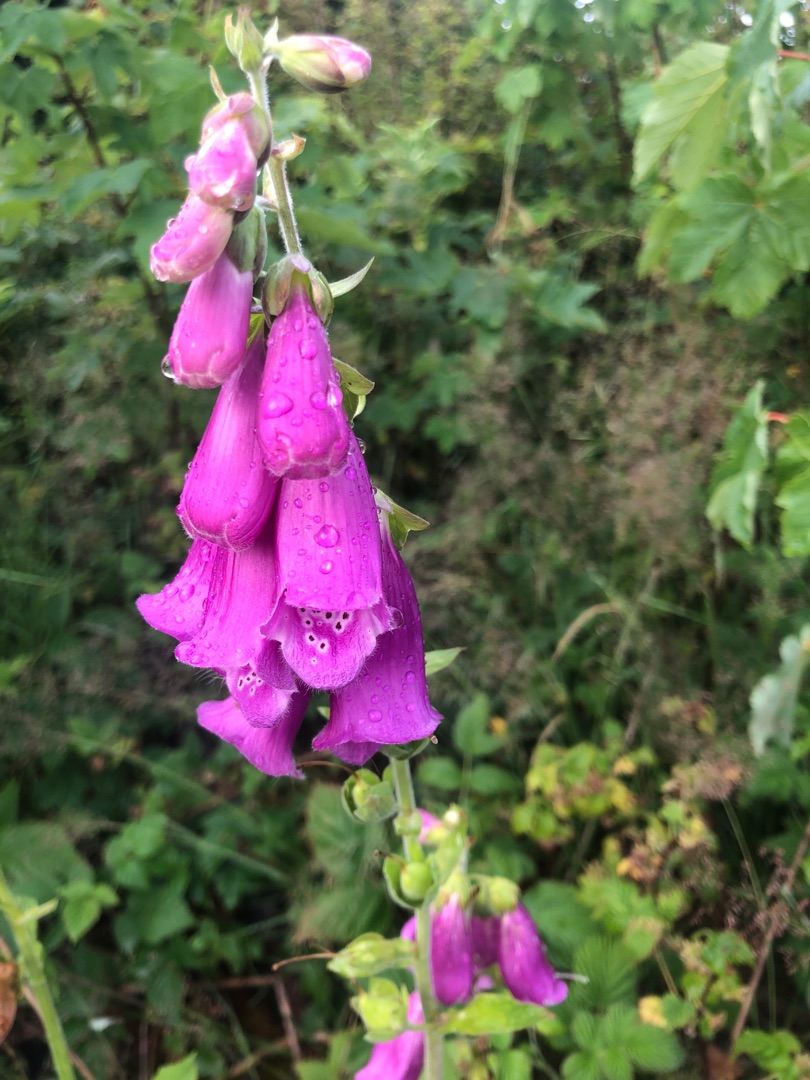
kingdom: Plantae
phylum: Tracheophyta
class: Magnoliopsida
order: Lamiales
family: Plantaginaceae
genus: Digitalis
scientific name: Digitalis purpurea
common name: Almindelig fingerbøl
